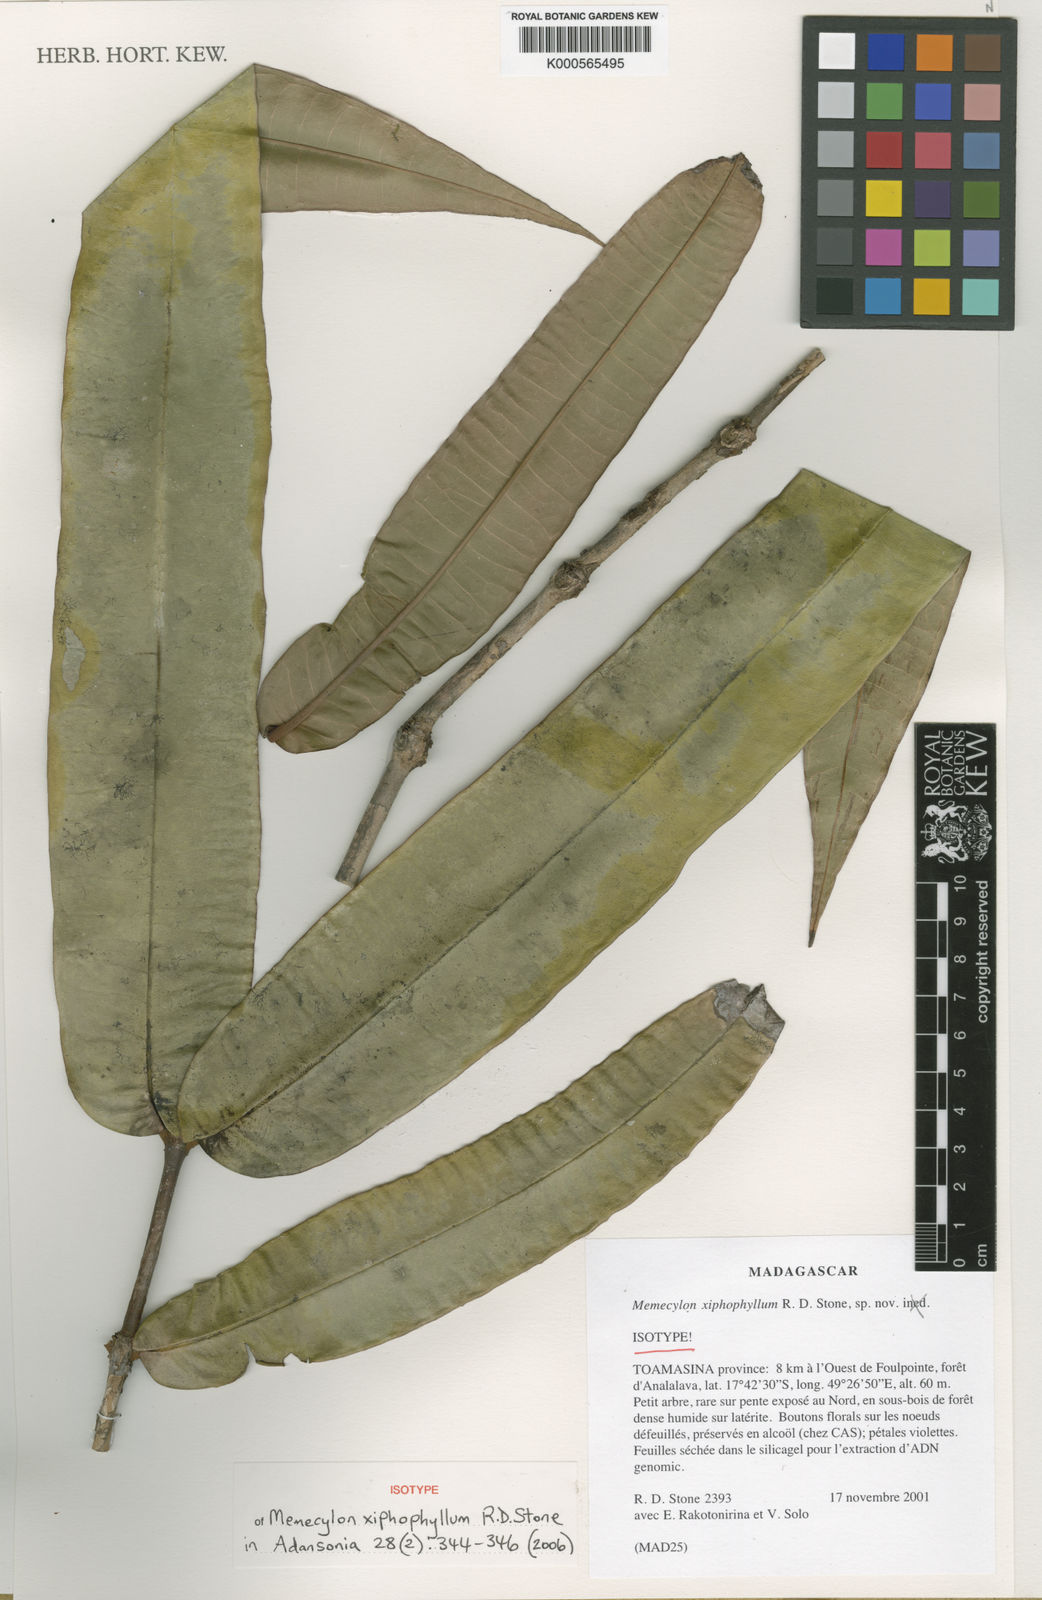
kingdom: Plantae
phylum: Tracheophyta
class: Magnoliopsida
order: Myrtales
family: Melastomataceae
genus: Memecylon
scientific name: Memecylon xiphophyllum
